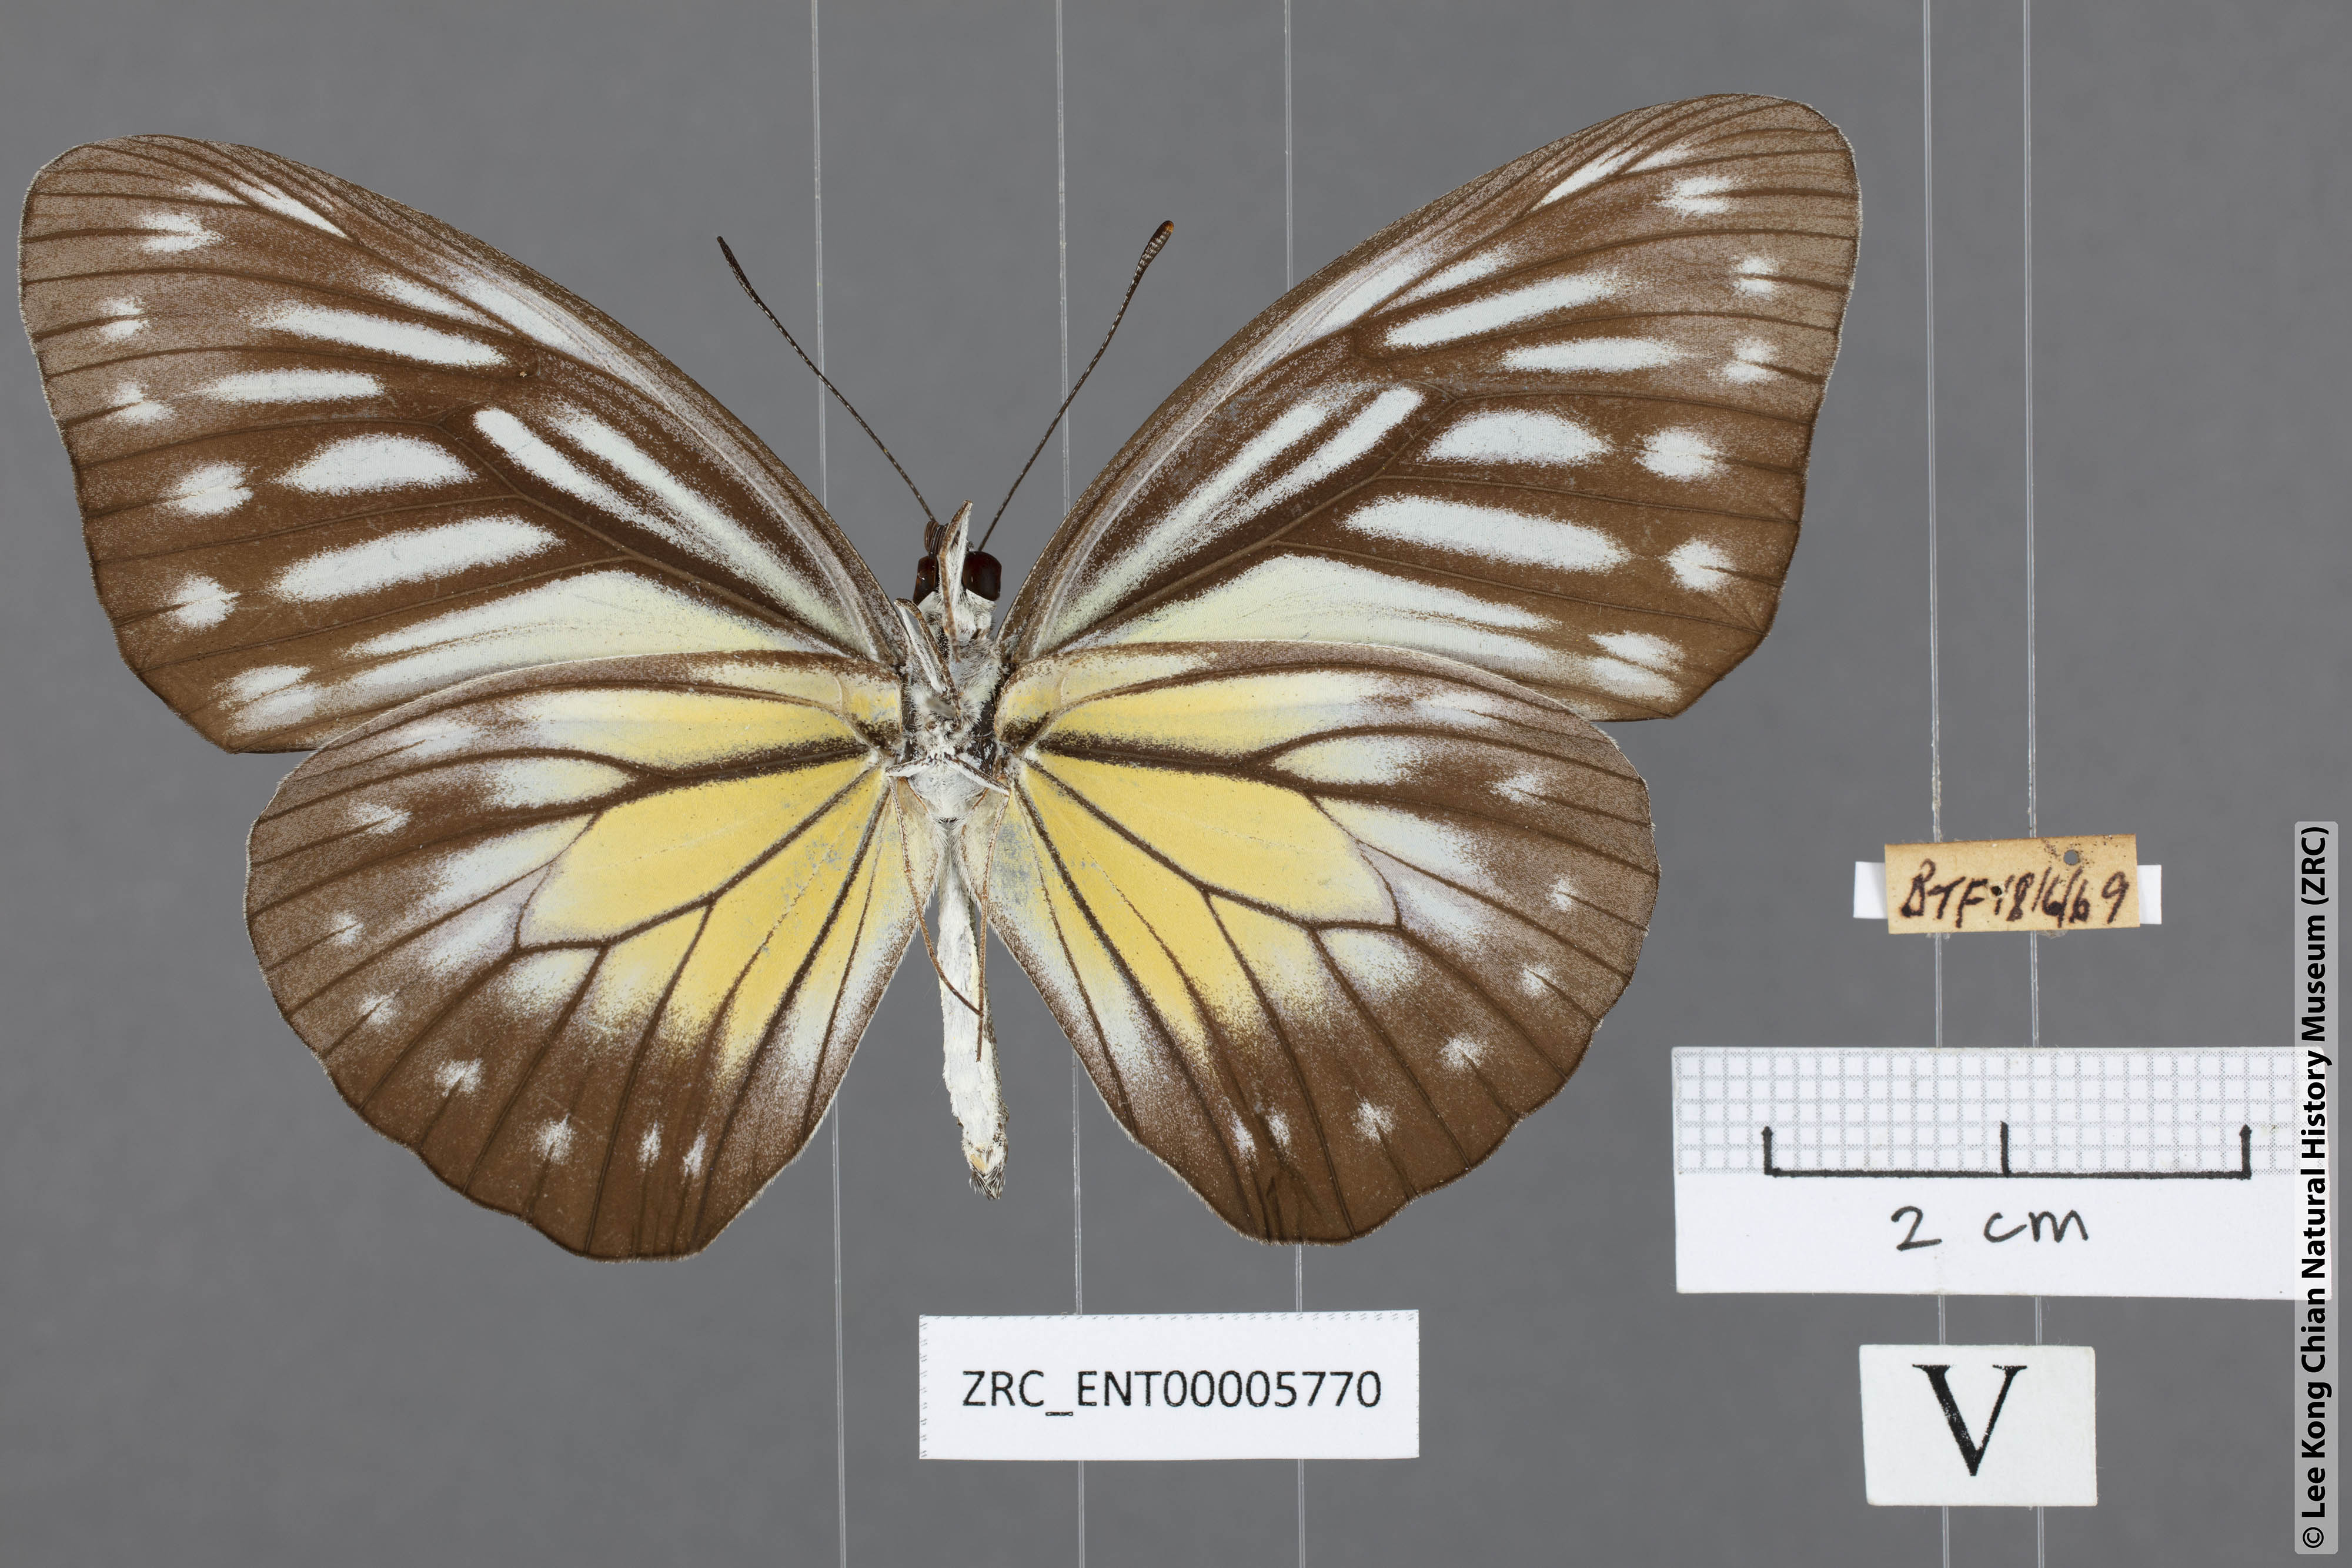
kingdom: Animalia
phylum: Arthropoda
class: Insecta
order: Lepidoptera
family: Pieridae
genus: Pareronia
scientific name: Pareronia valeria
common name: Common wanderer?
